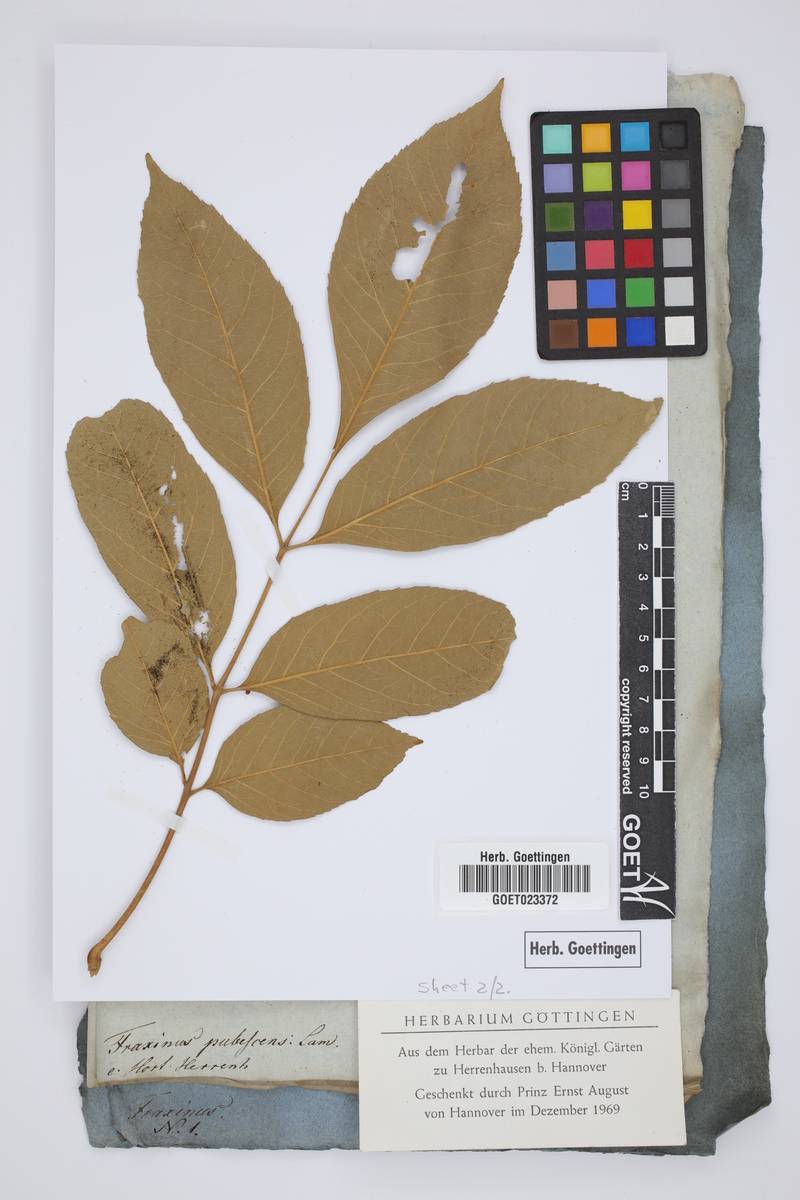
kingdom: Plantae
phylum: Tracheophyta
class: Magnoliopsida
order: Lamiales
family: Oleaceae
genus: Fraxinus
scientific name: Fraxinus pennsylvanica
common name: Green ash
